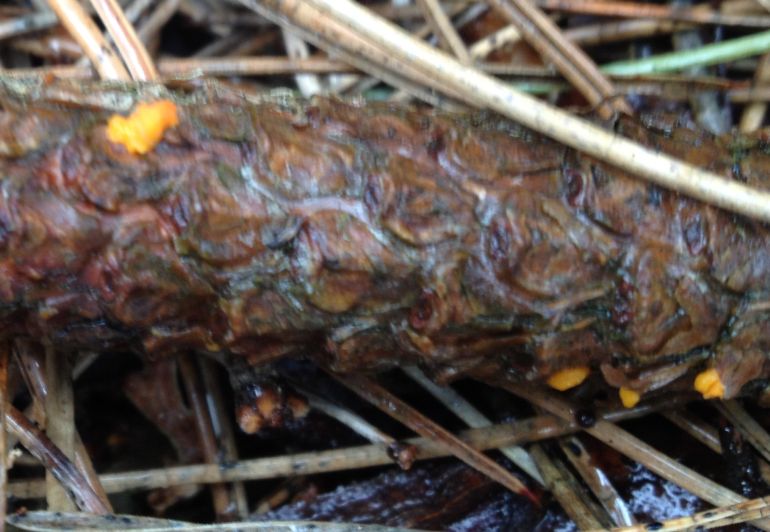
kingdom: Fungi
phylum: Basidiomycota
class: Dacrymycetes
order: Dacrymycetales
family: Dacrymycetaceae
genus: Dacrymyces
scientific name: Dacrymyces stillatus
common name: almindelig tåresvamp
